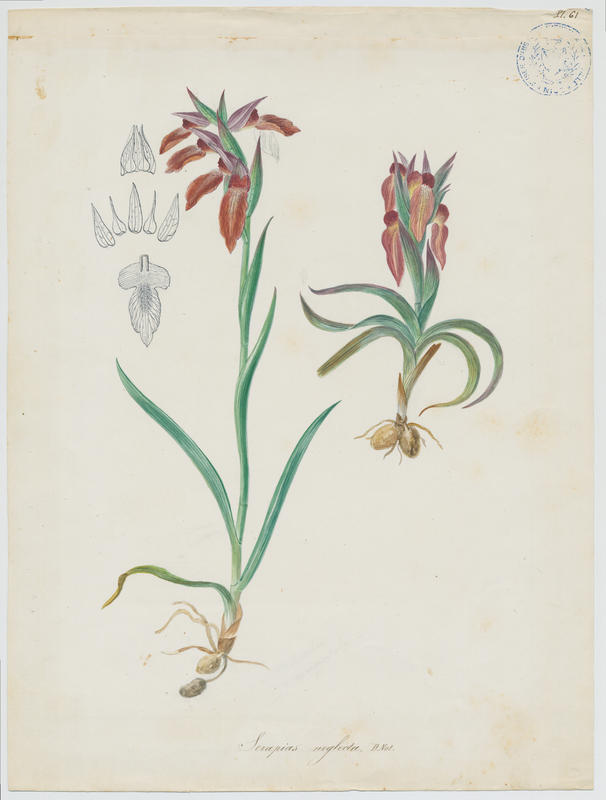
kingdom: Plantae
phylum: Tracheophyta
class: Liliopsida
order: Asparagales
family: Orchidaceae
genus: Serapias
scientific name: Serapias neglecta
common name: Neglected serapias
